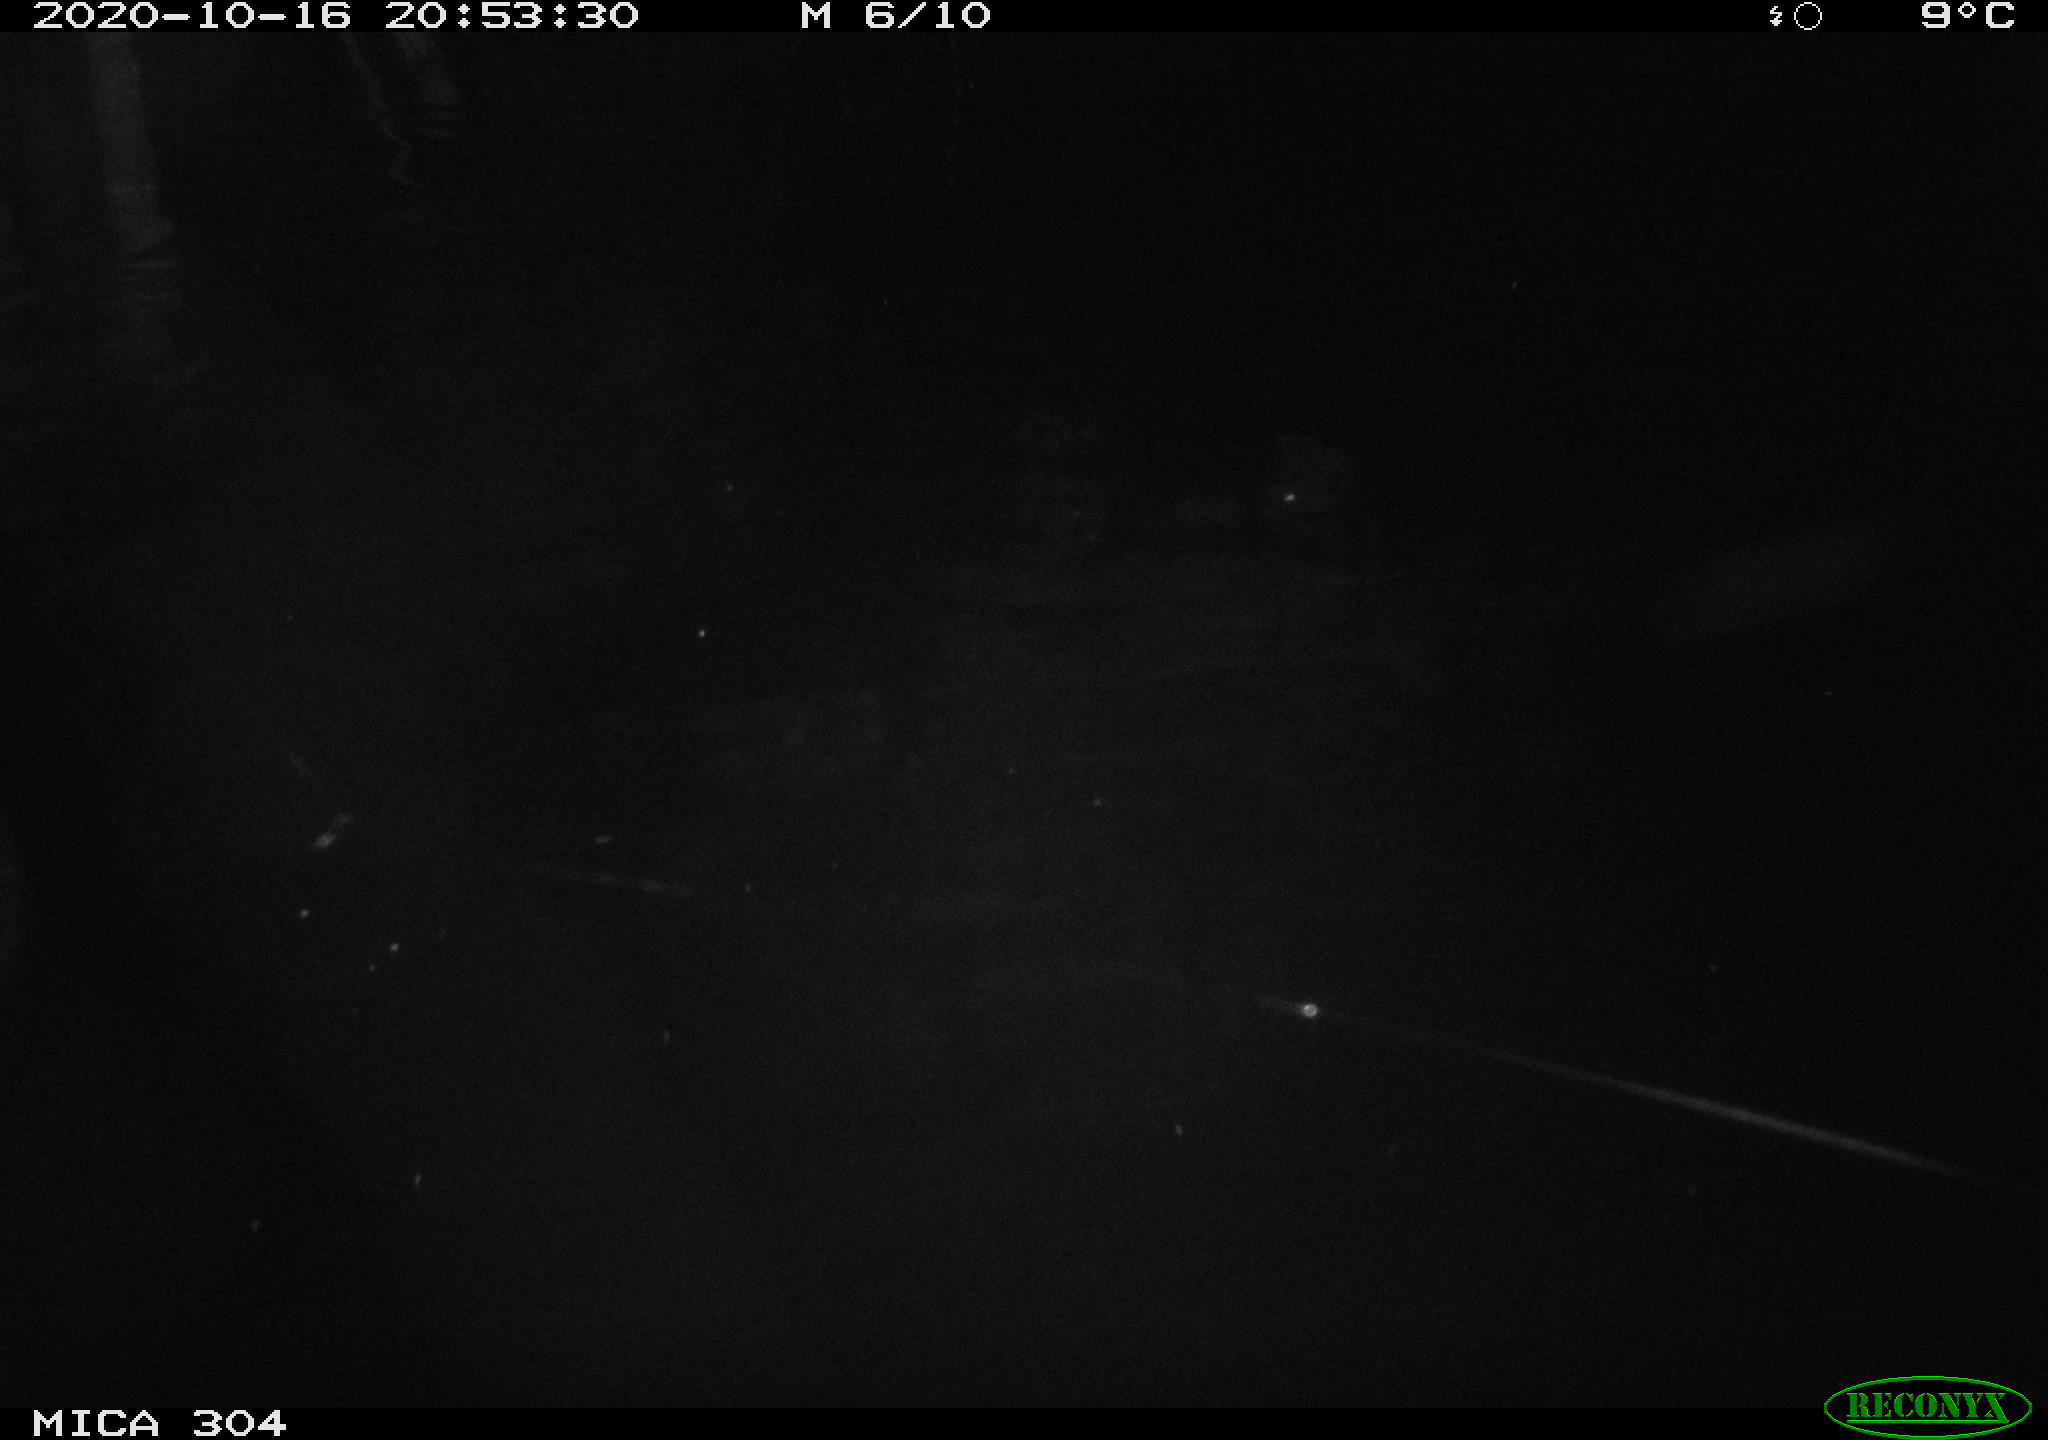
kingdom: Animalia
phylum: Chordata
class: Mammalia
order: Rodentia
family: Muridae
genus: Rattus
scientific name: Rattus norvegicus
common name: Brown rat
